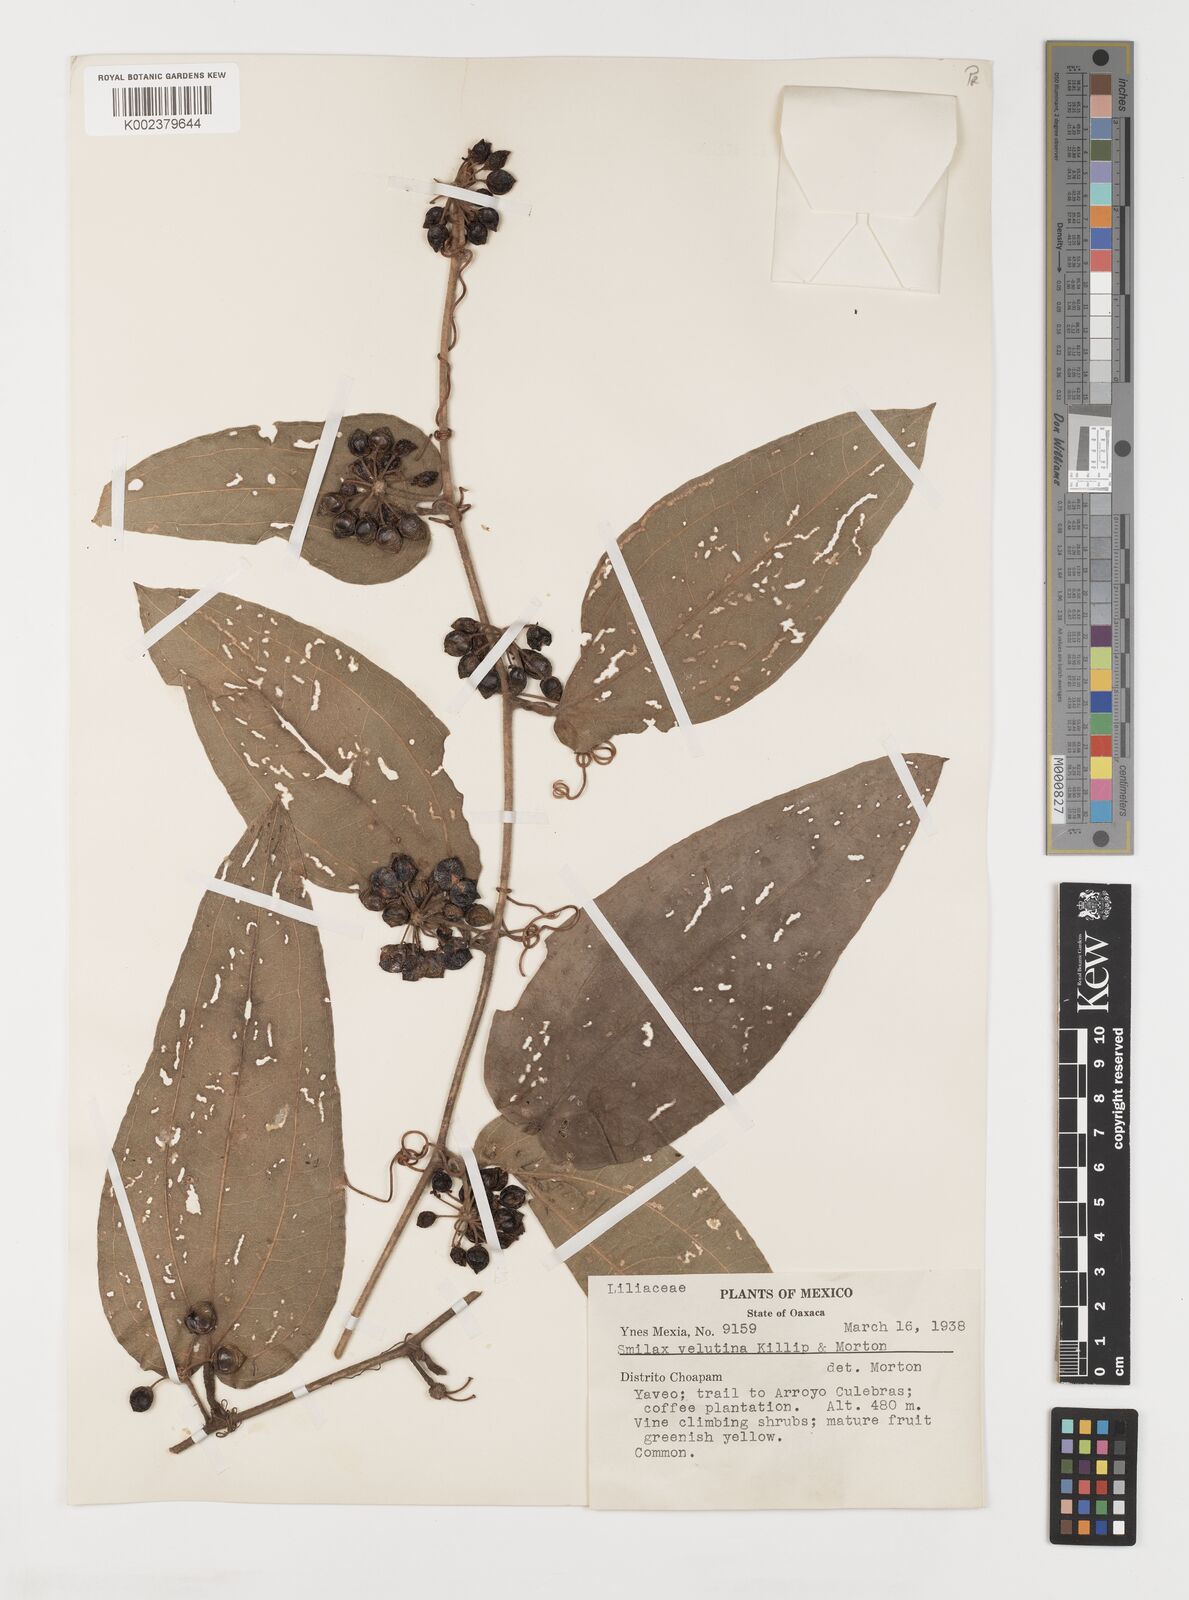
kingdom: Plantae
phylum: Tracheophyta
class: Liliopsida
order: Liliales
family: Smilacaceae
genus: Smilax
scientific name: Smilax velutina
